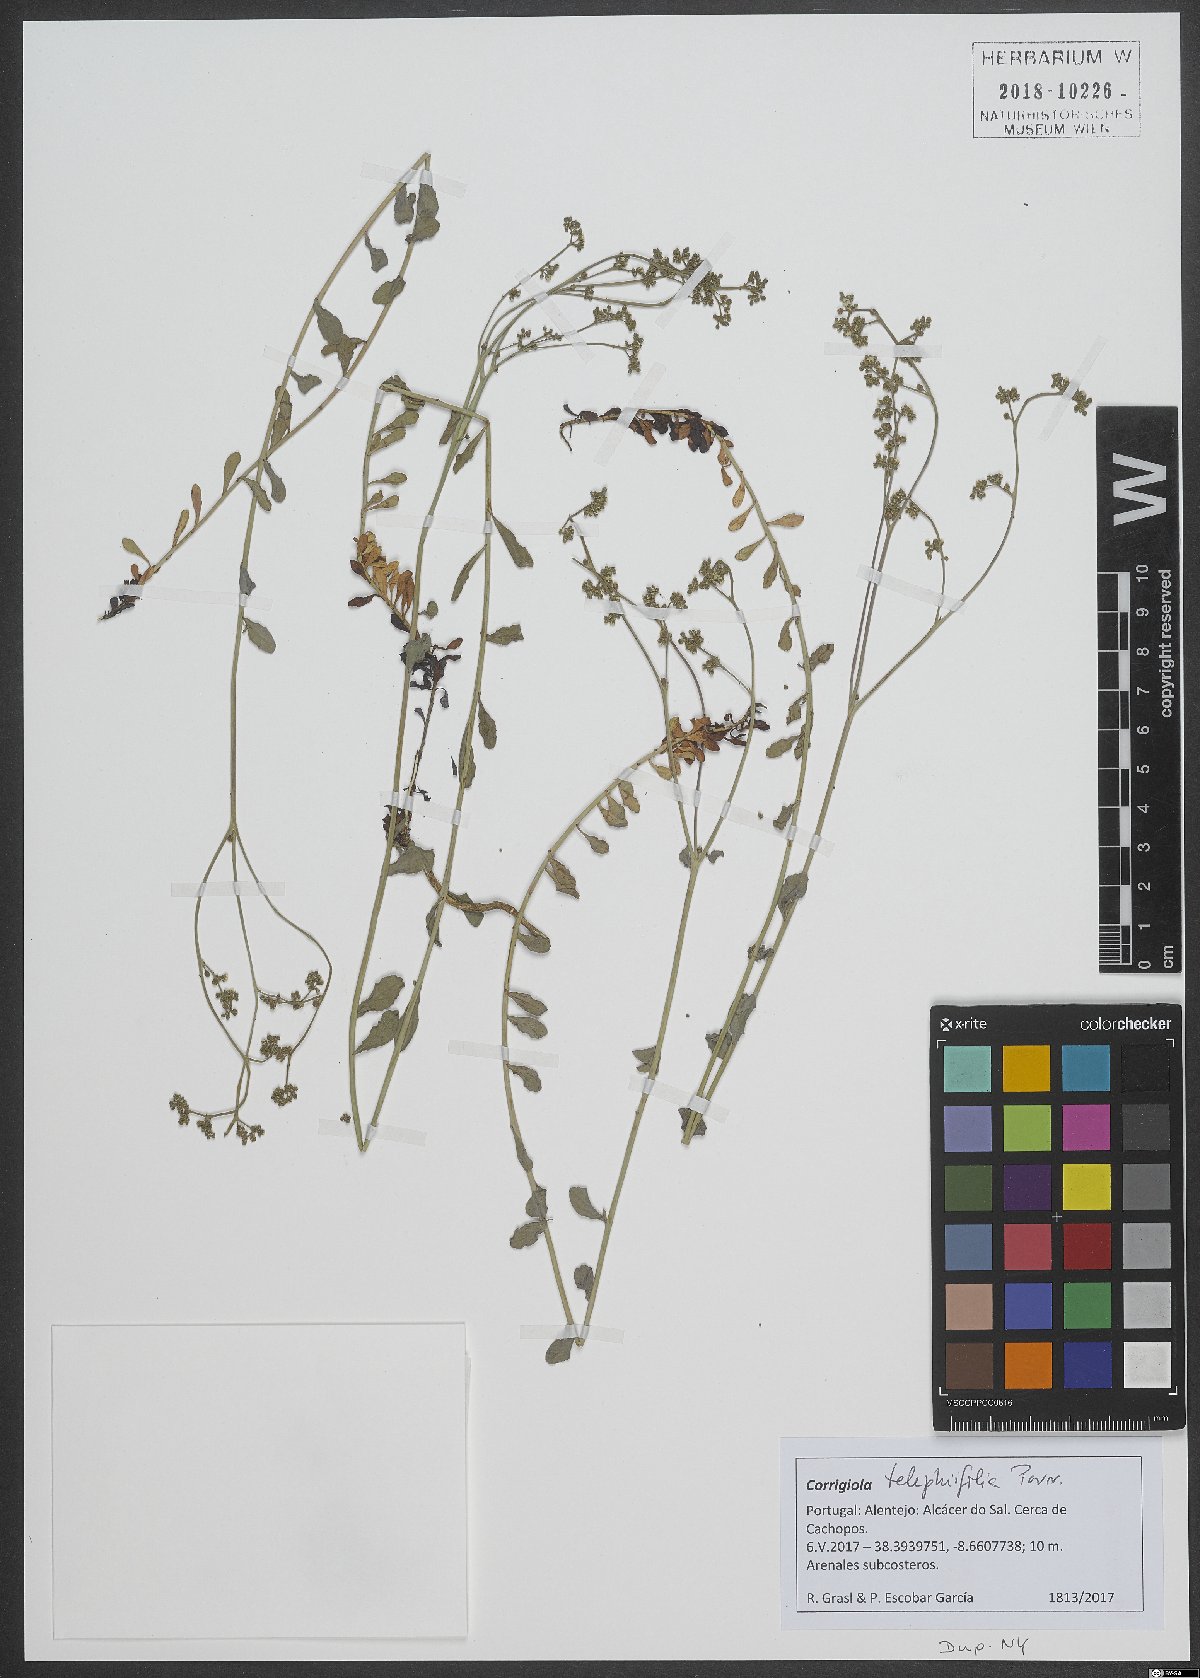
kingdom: Plantae
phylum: Tracheophyta
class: Magnoliopsida
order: Caryophyllales
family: Caryophyllaceae
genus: Corrigiola
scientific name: Corrigiola telephiifolia
